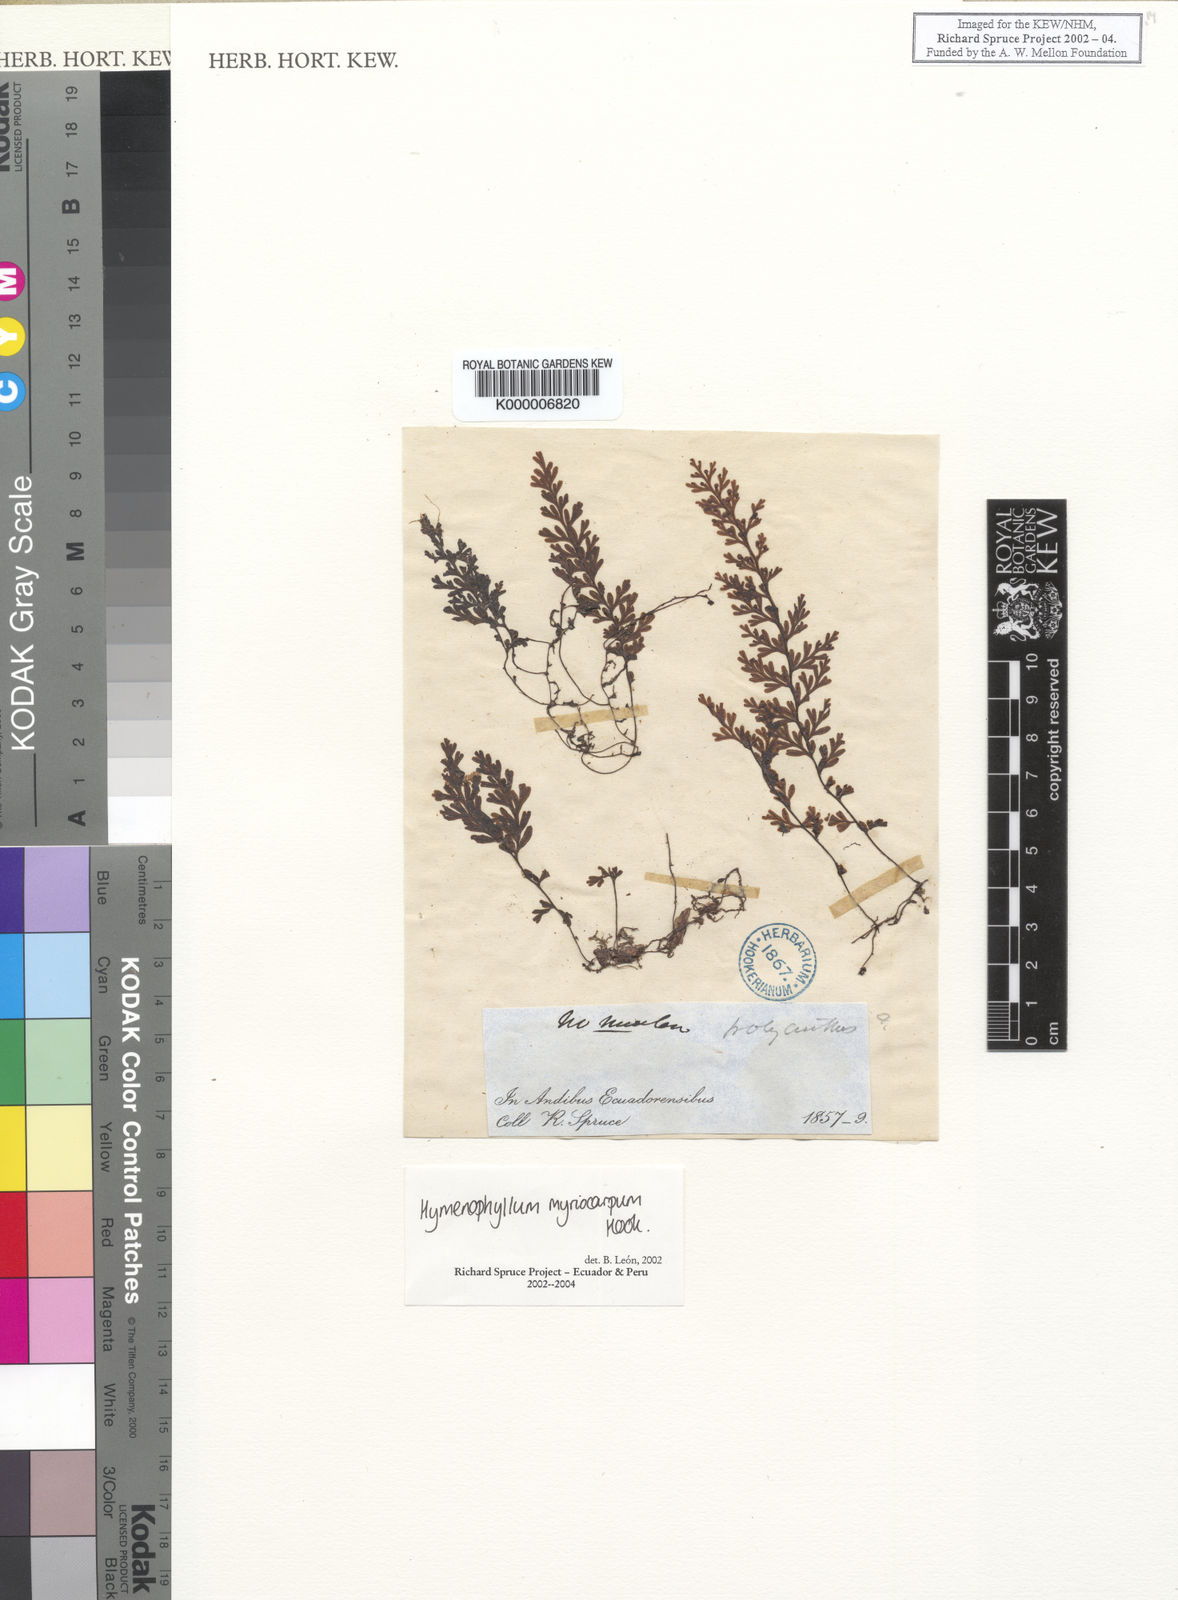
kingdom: Plantae
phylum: Tracheophyta
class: Polypodiopsida
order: Hymenophyllales
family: Hymenophyllaceae
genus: Hymenophyllum
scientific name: Hymenophyllum myriocarpum
